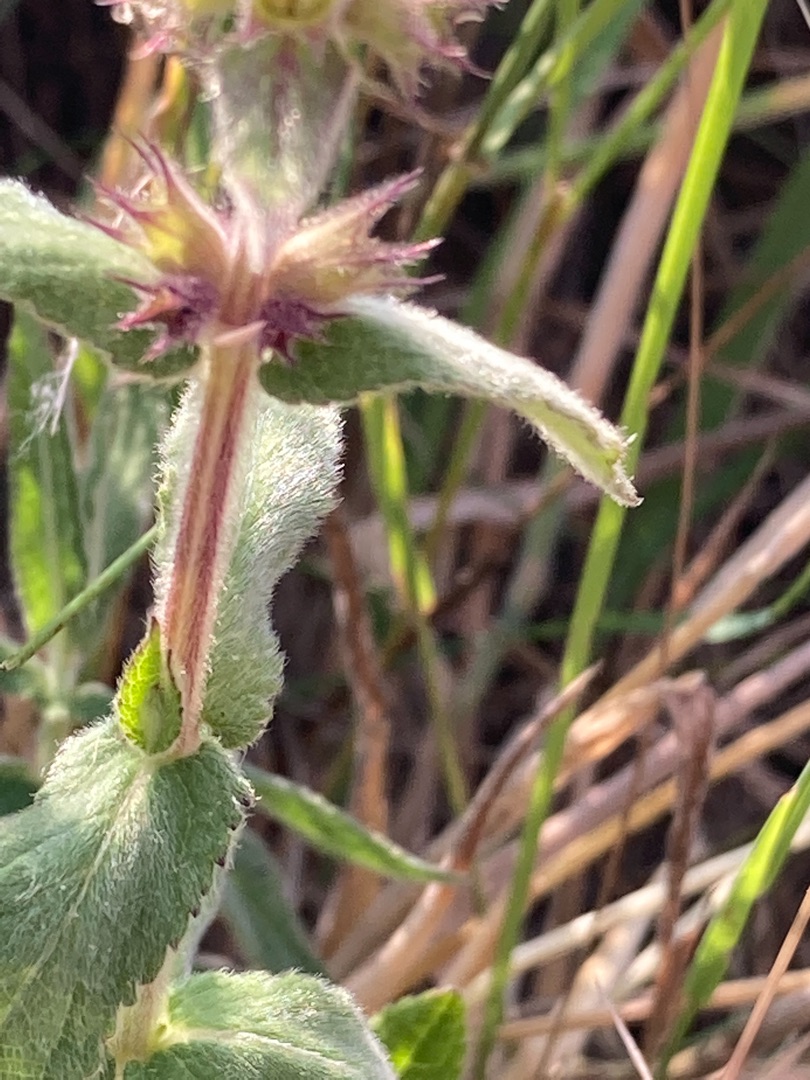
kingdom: Plantae
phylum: Tracheophyta
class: Magnoliopsida
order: Lamiales
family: Lamiaceae
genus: Stachys
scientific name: Stachys palustris
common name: Kær-galtetand
